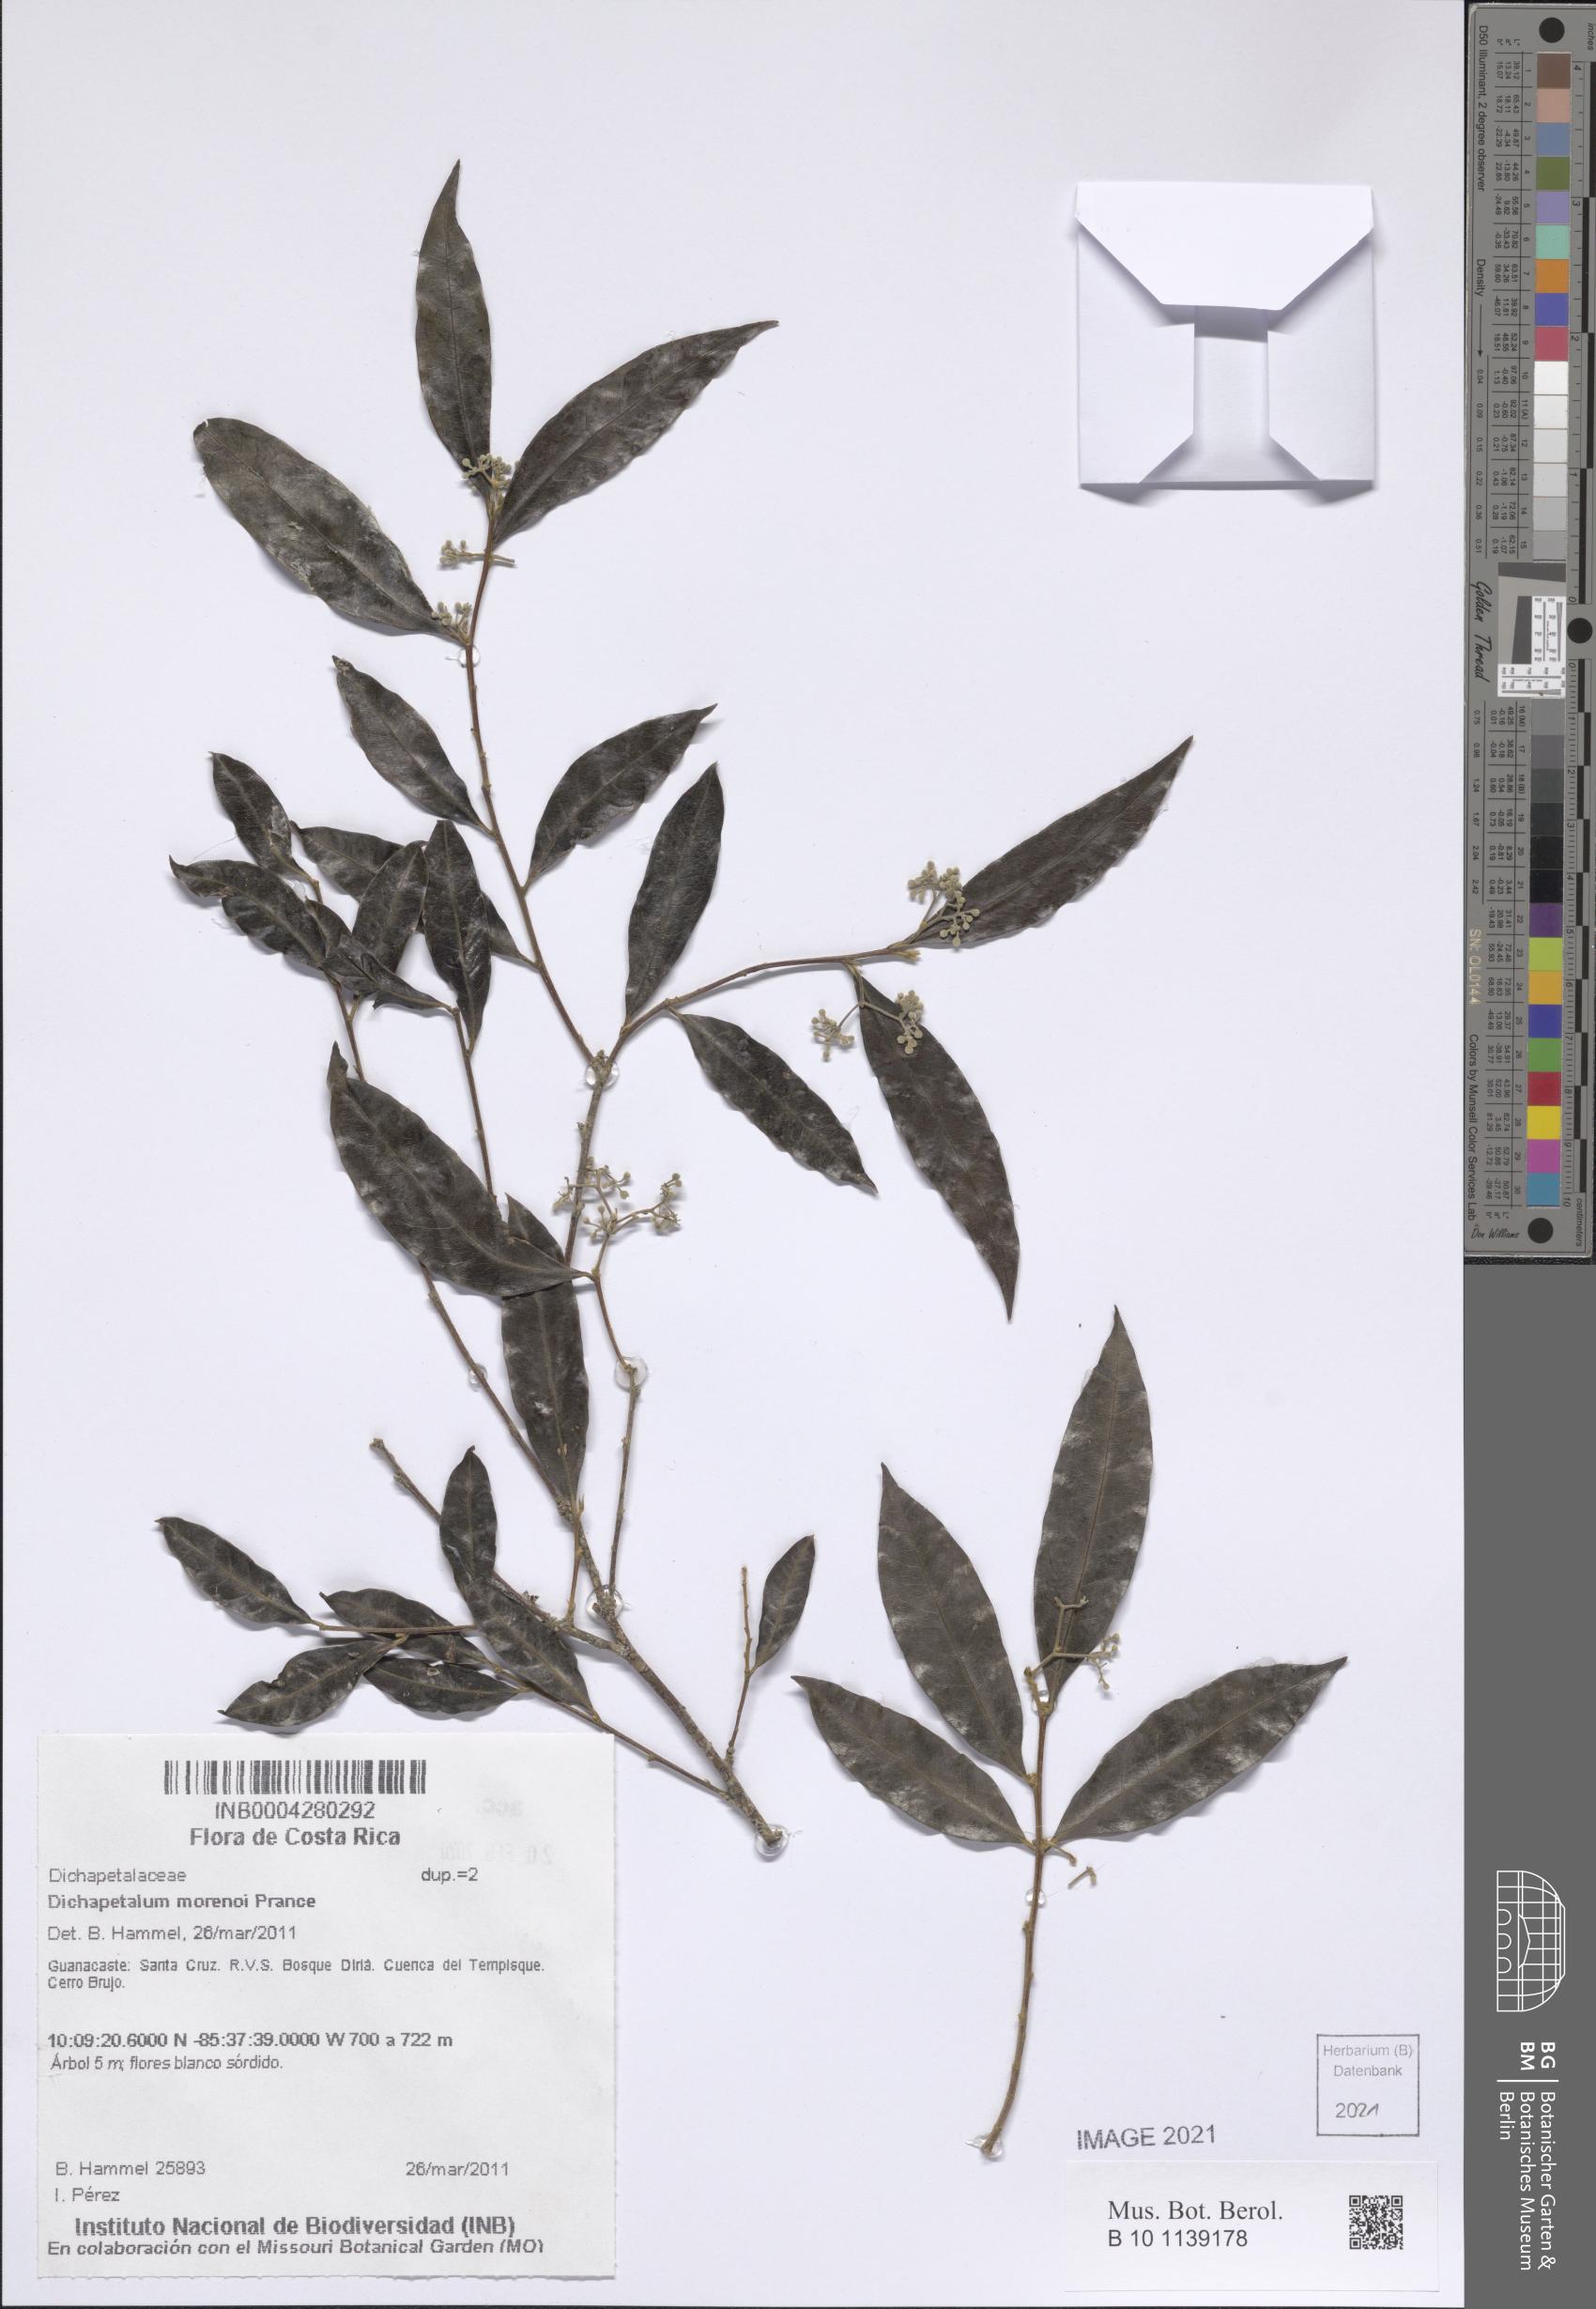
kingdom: Plantae
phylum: Tracheophyta
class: Magnoliopsida
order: Malpighiales
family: Dichapetalaceae
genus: Dichapetalum
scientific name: Dichapetalum morenoi
